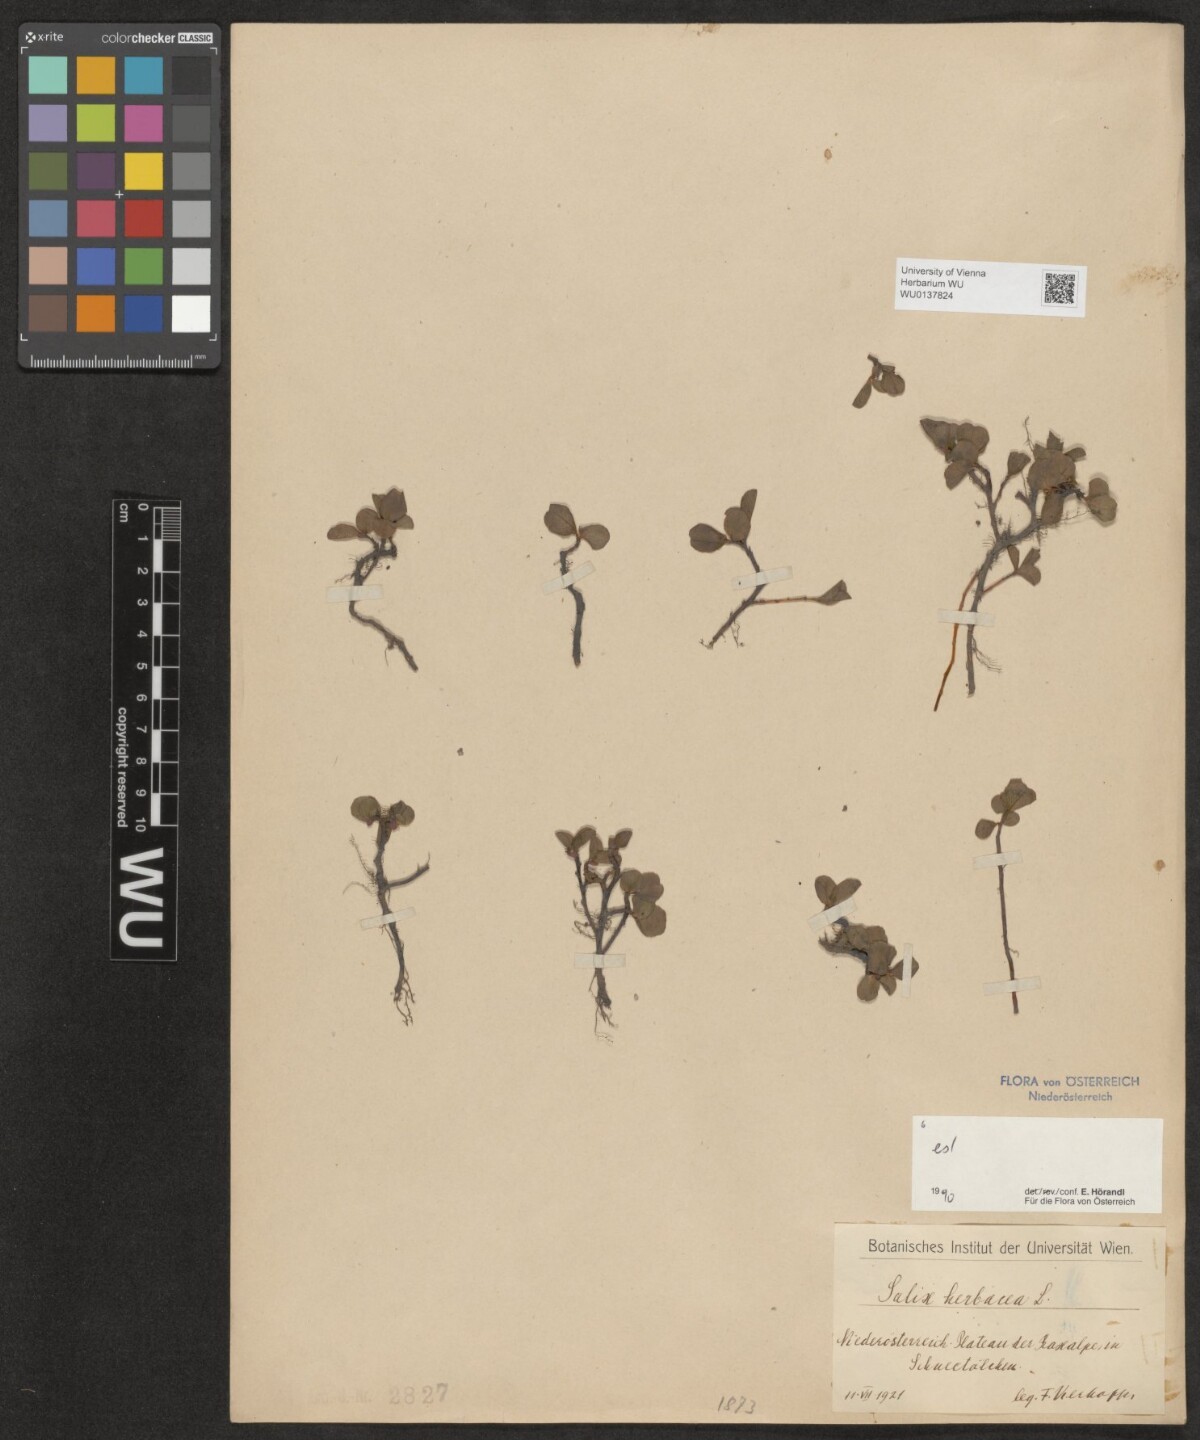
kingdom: Plantae
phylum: Tracheophyta
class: Magnoliopsida
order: Malpighiales
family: Salicaceae
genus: Salix
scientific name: Salix herbacea
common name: Dwarf willow
